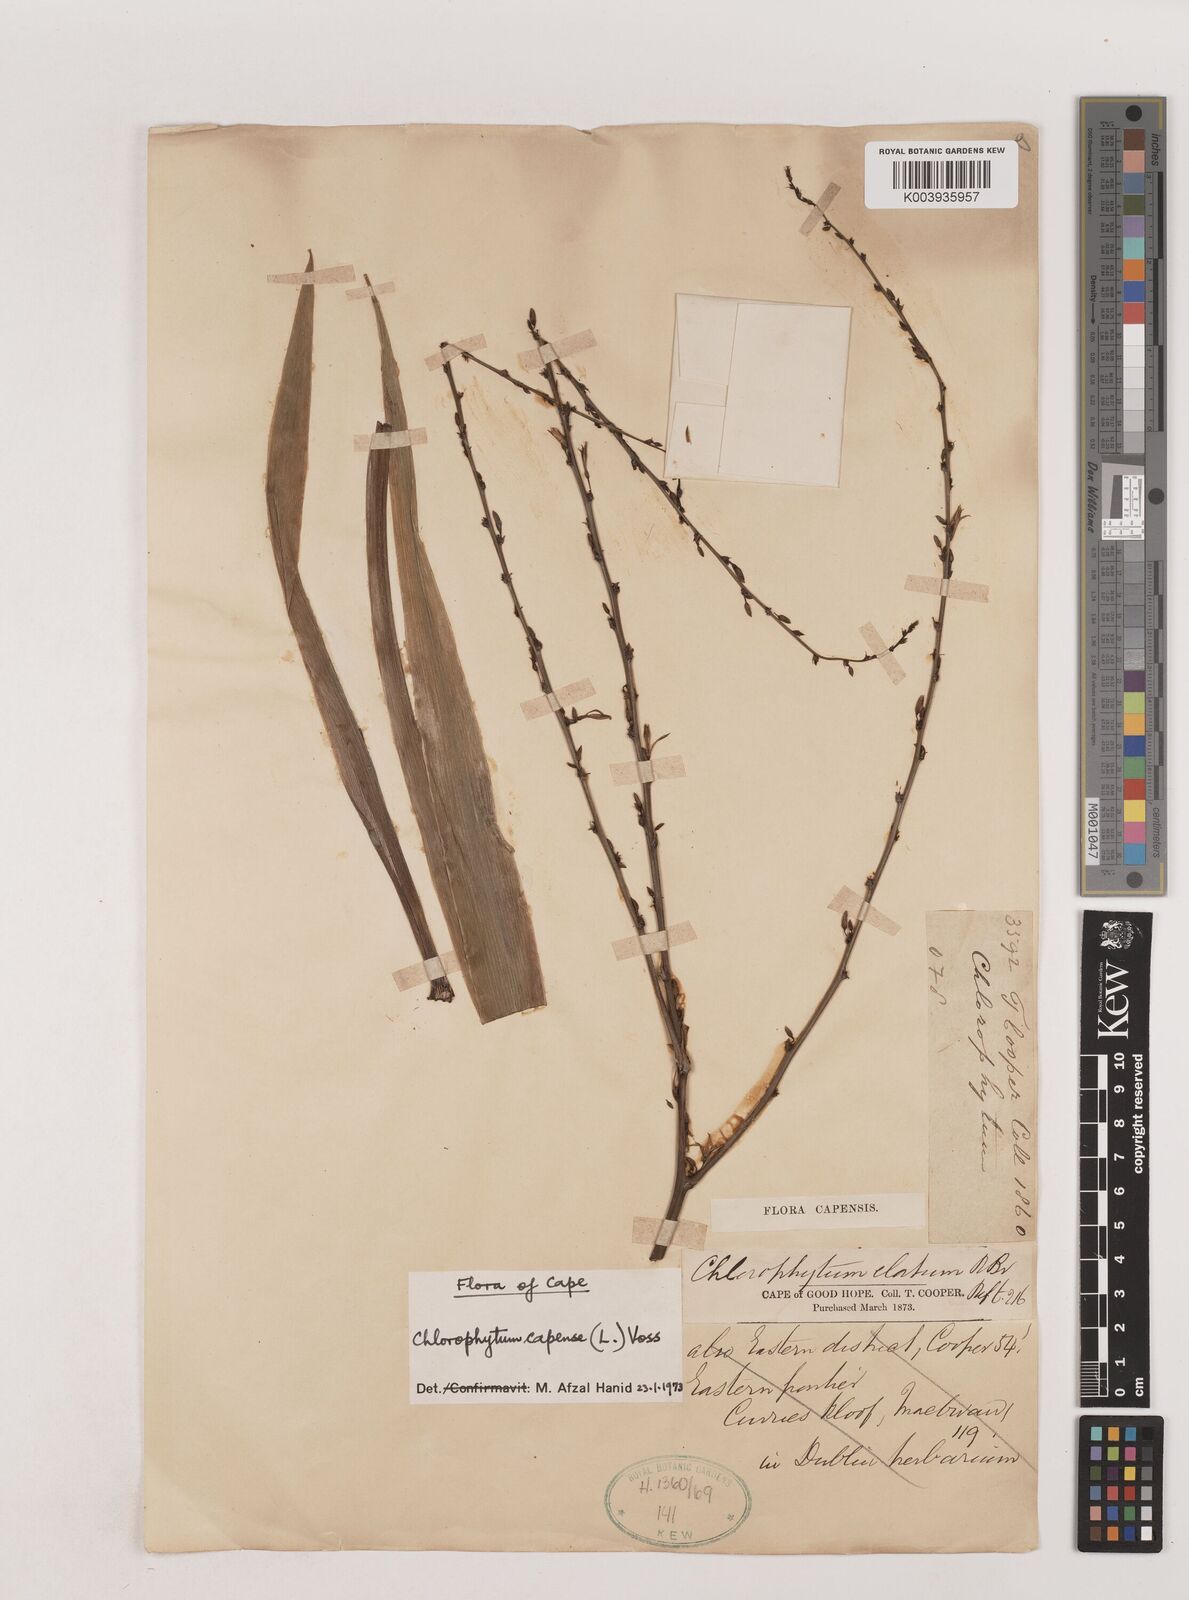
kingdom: Plantae
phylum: Tracheophyta
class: Liliopsida
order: Asparagales
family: Asparagaceae
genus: Chlorophytum
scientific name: Chlorophytum capense
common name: Bracketplant
